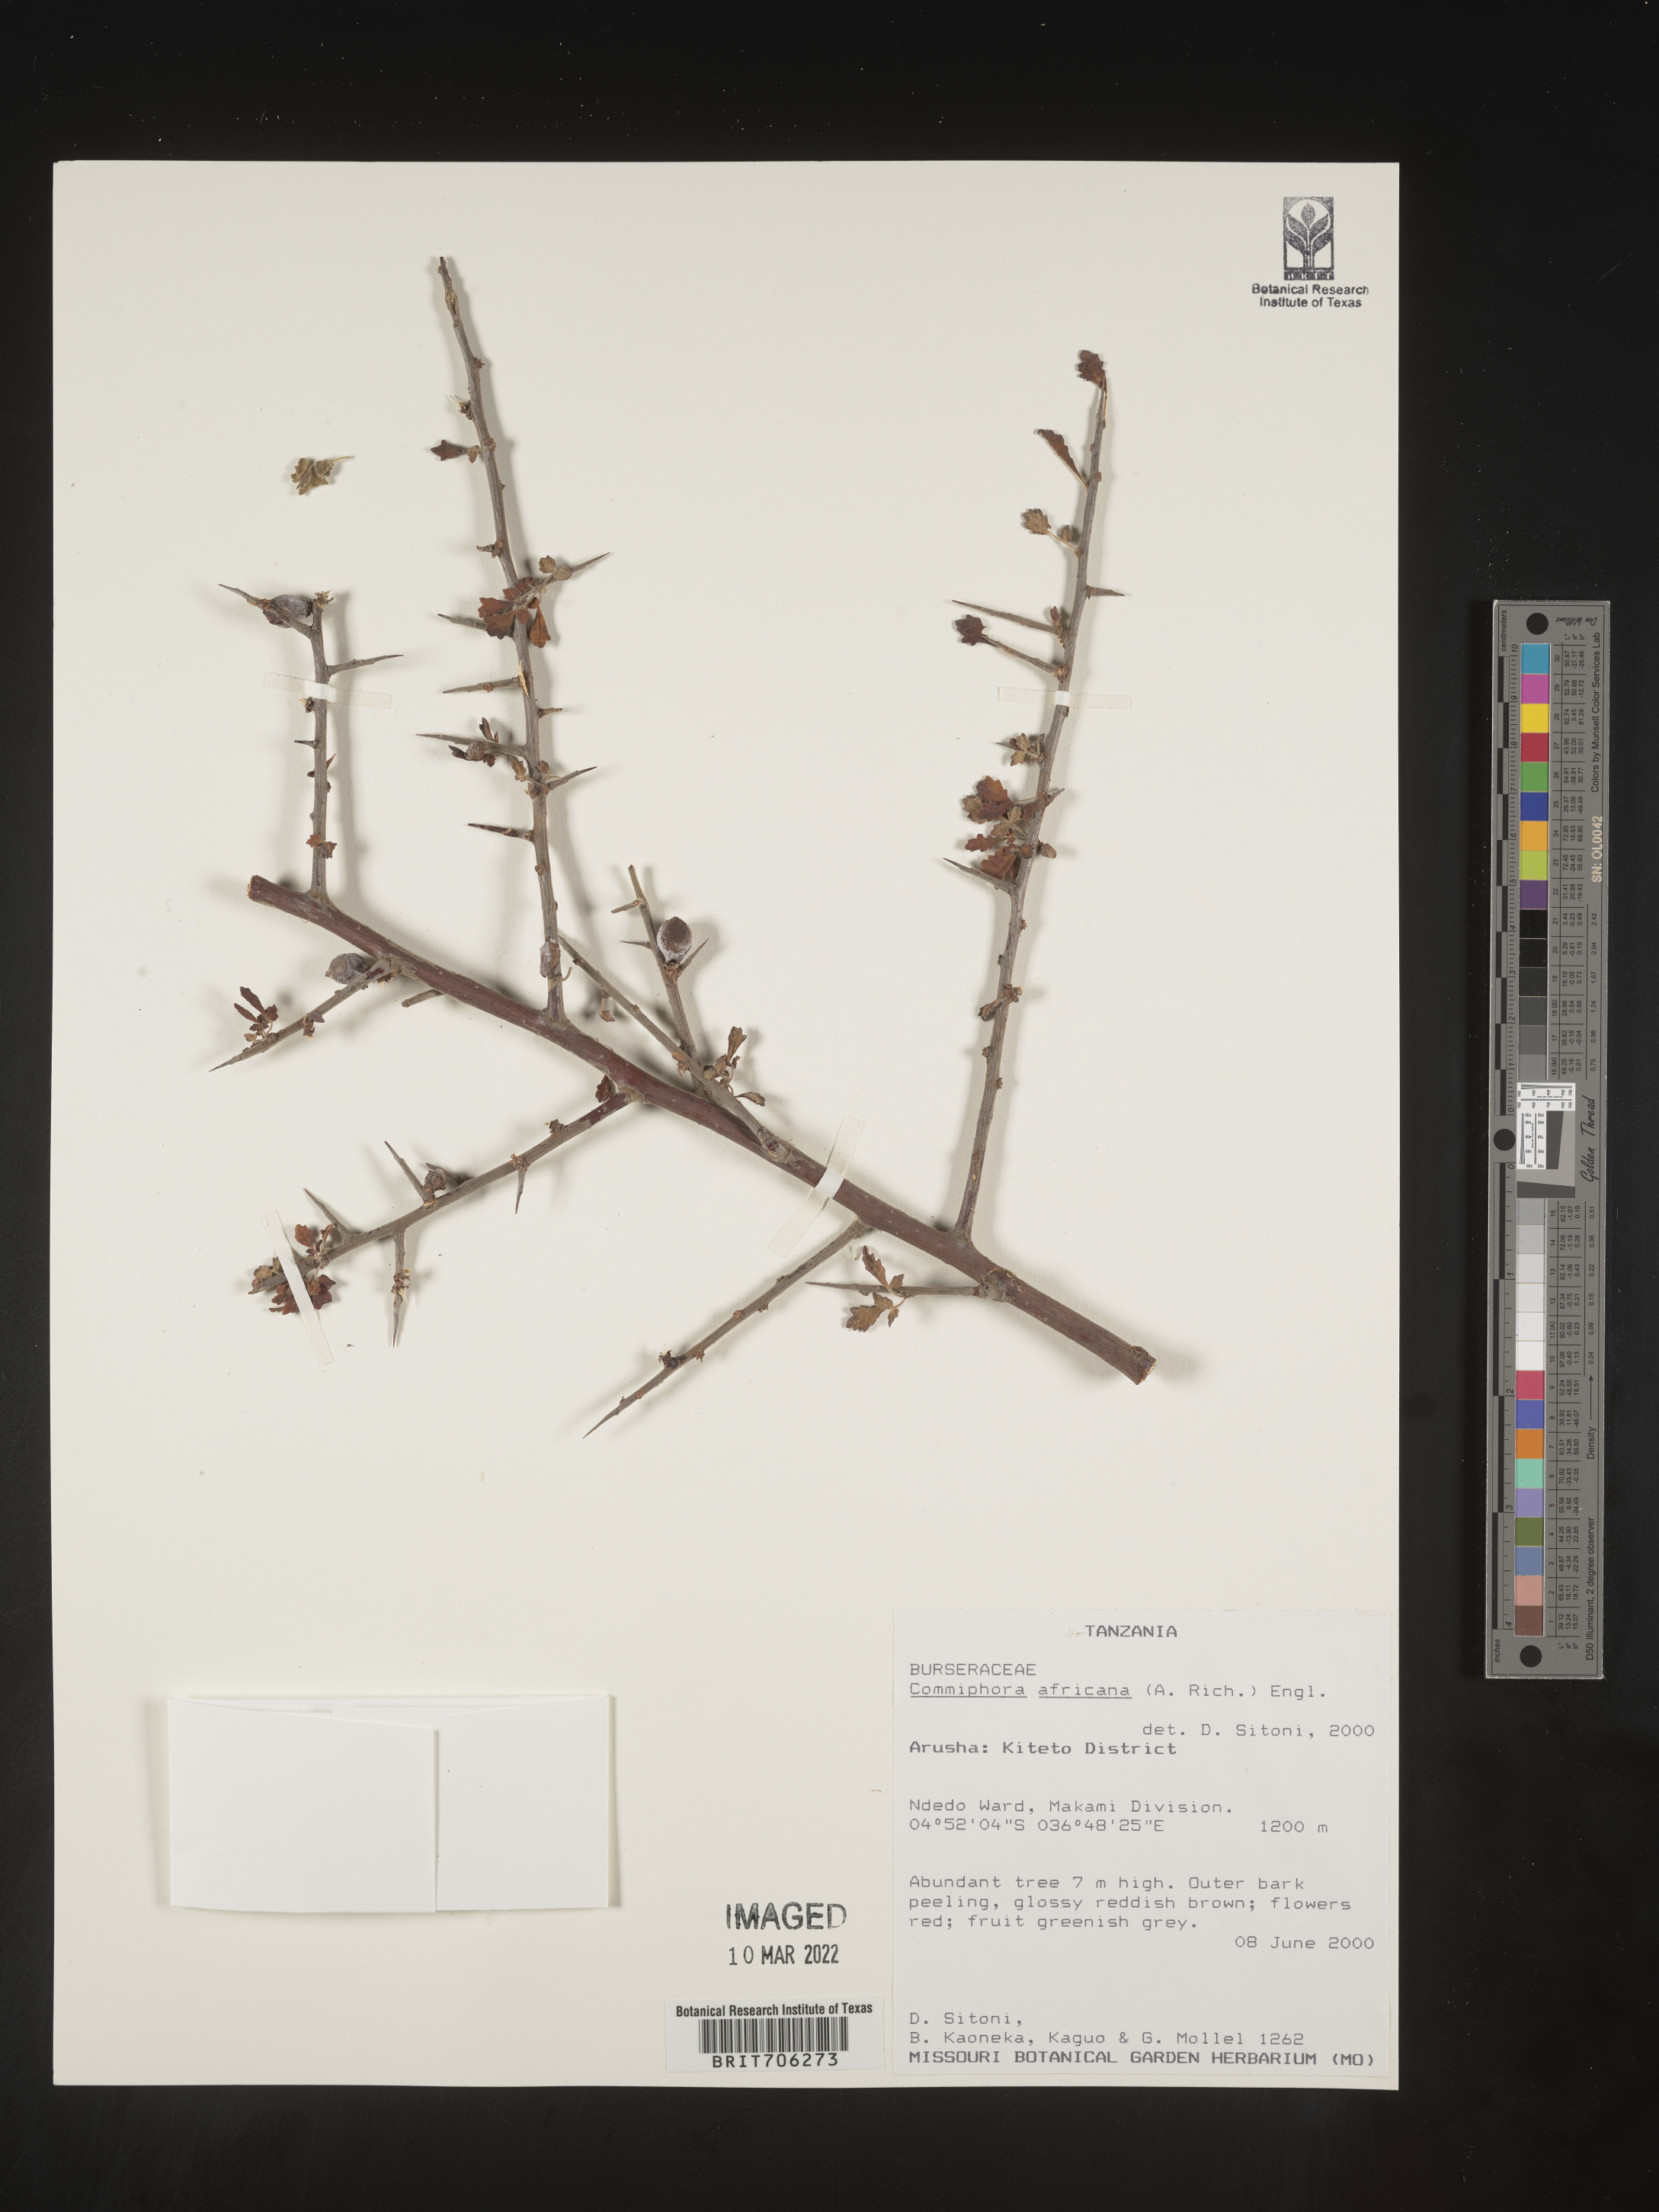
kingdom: Plantae
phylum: Tracheophyta
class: Magnoliopsida
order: Sapindales
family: Burseraceae
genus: Commiphora
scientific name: Commiphora
